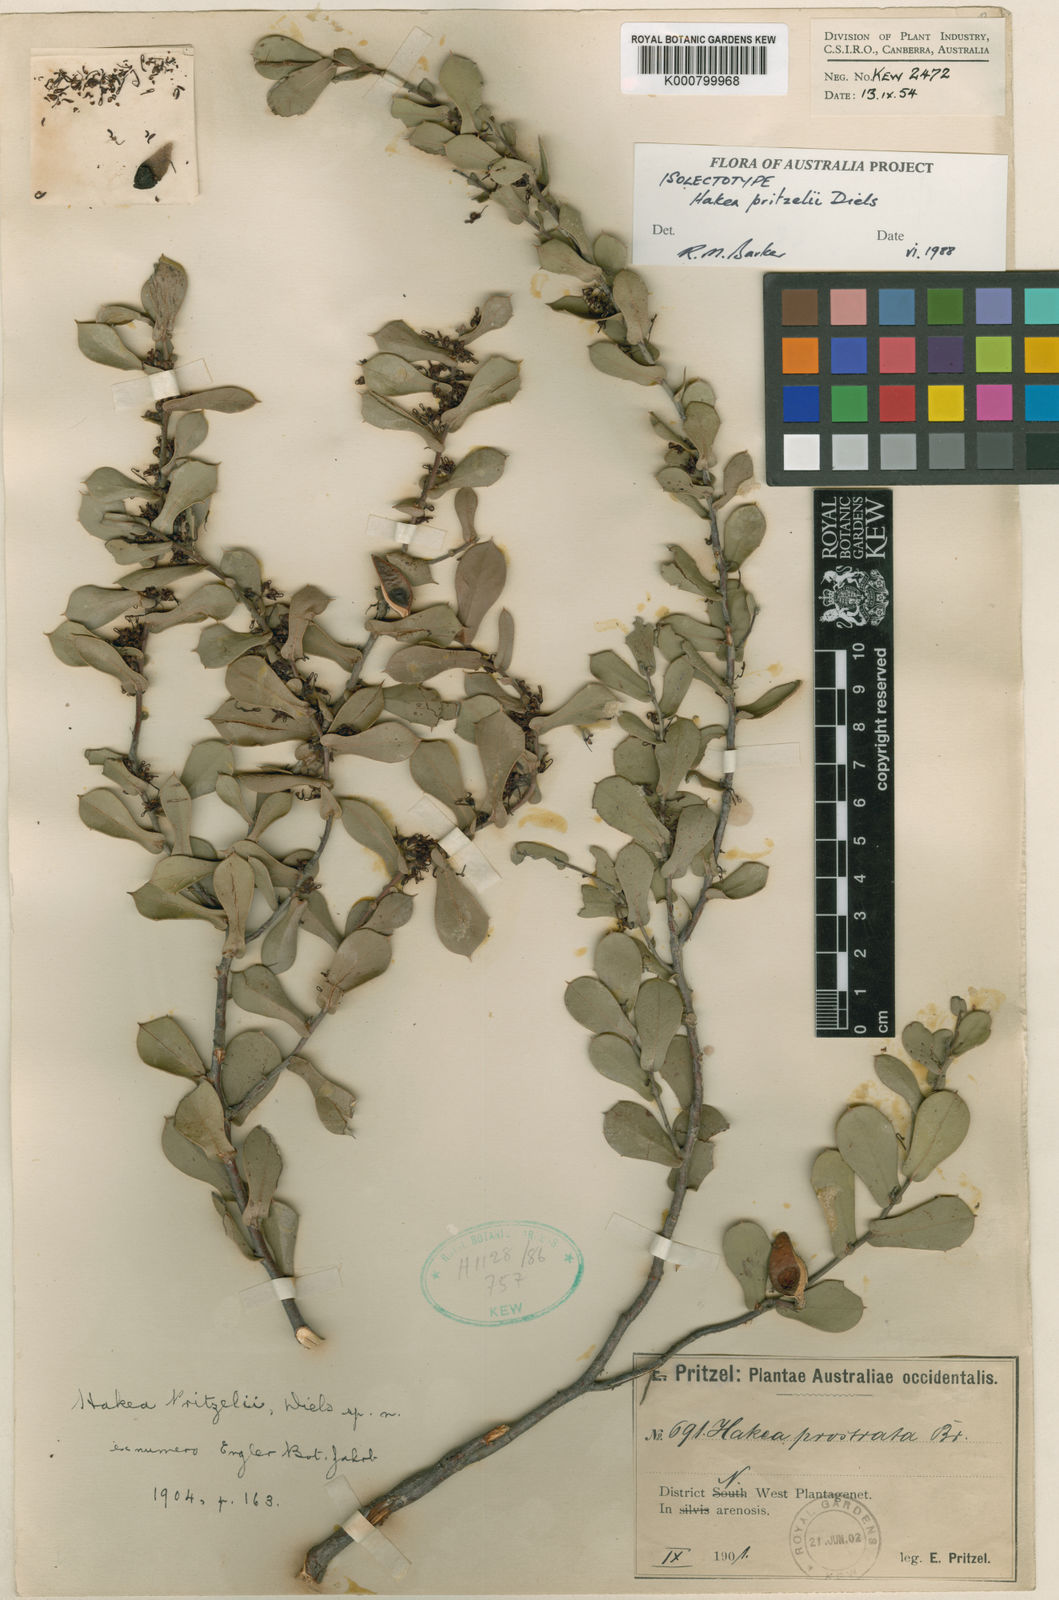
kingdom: Plantae
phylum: Tracheophyta
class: Magnoliopsida
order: Proteales
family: Proteaceae
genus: Hakea
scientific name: Hakea pritzelii
